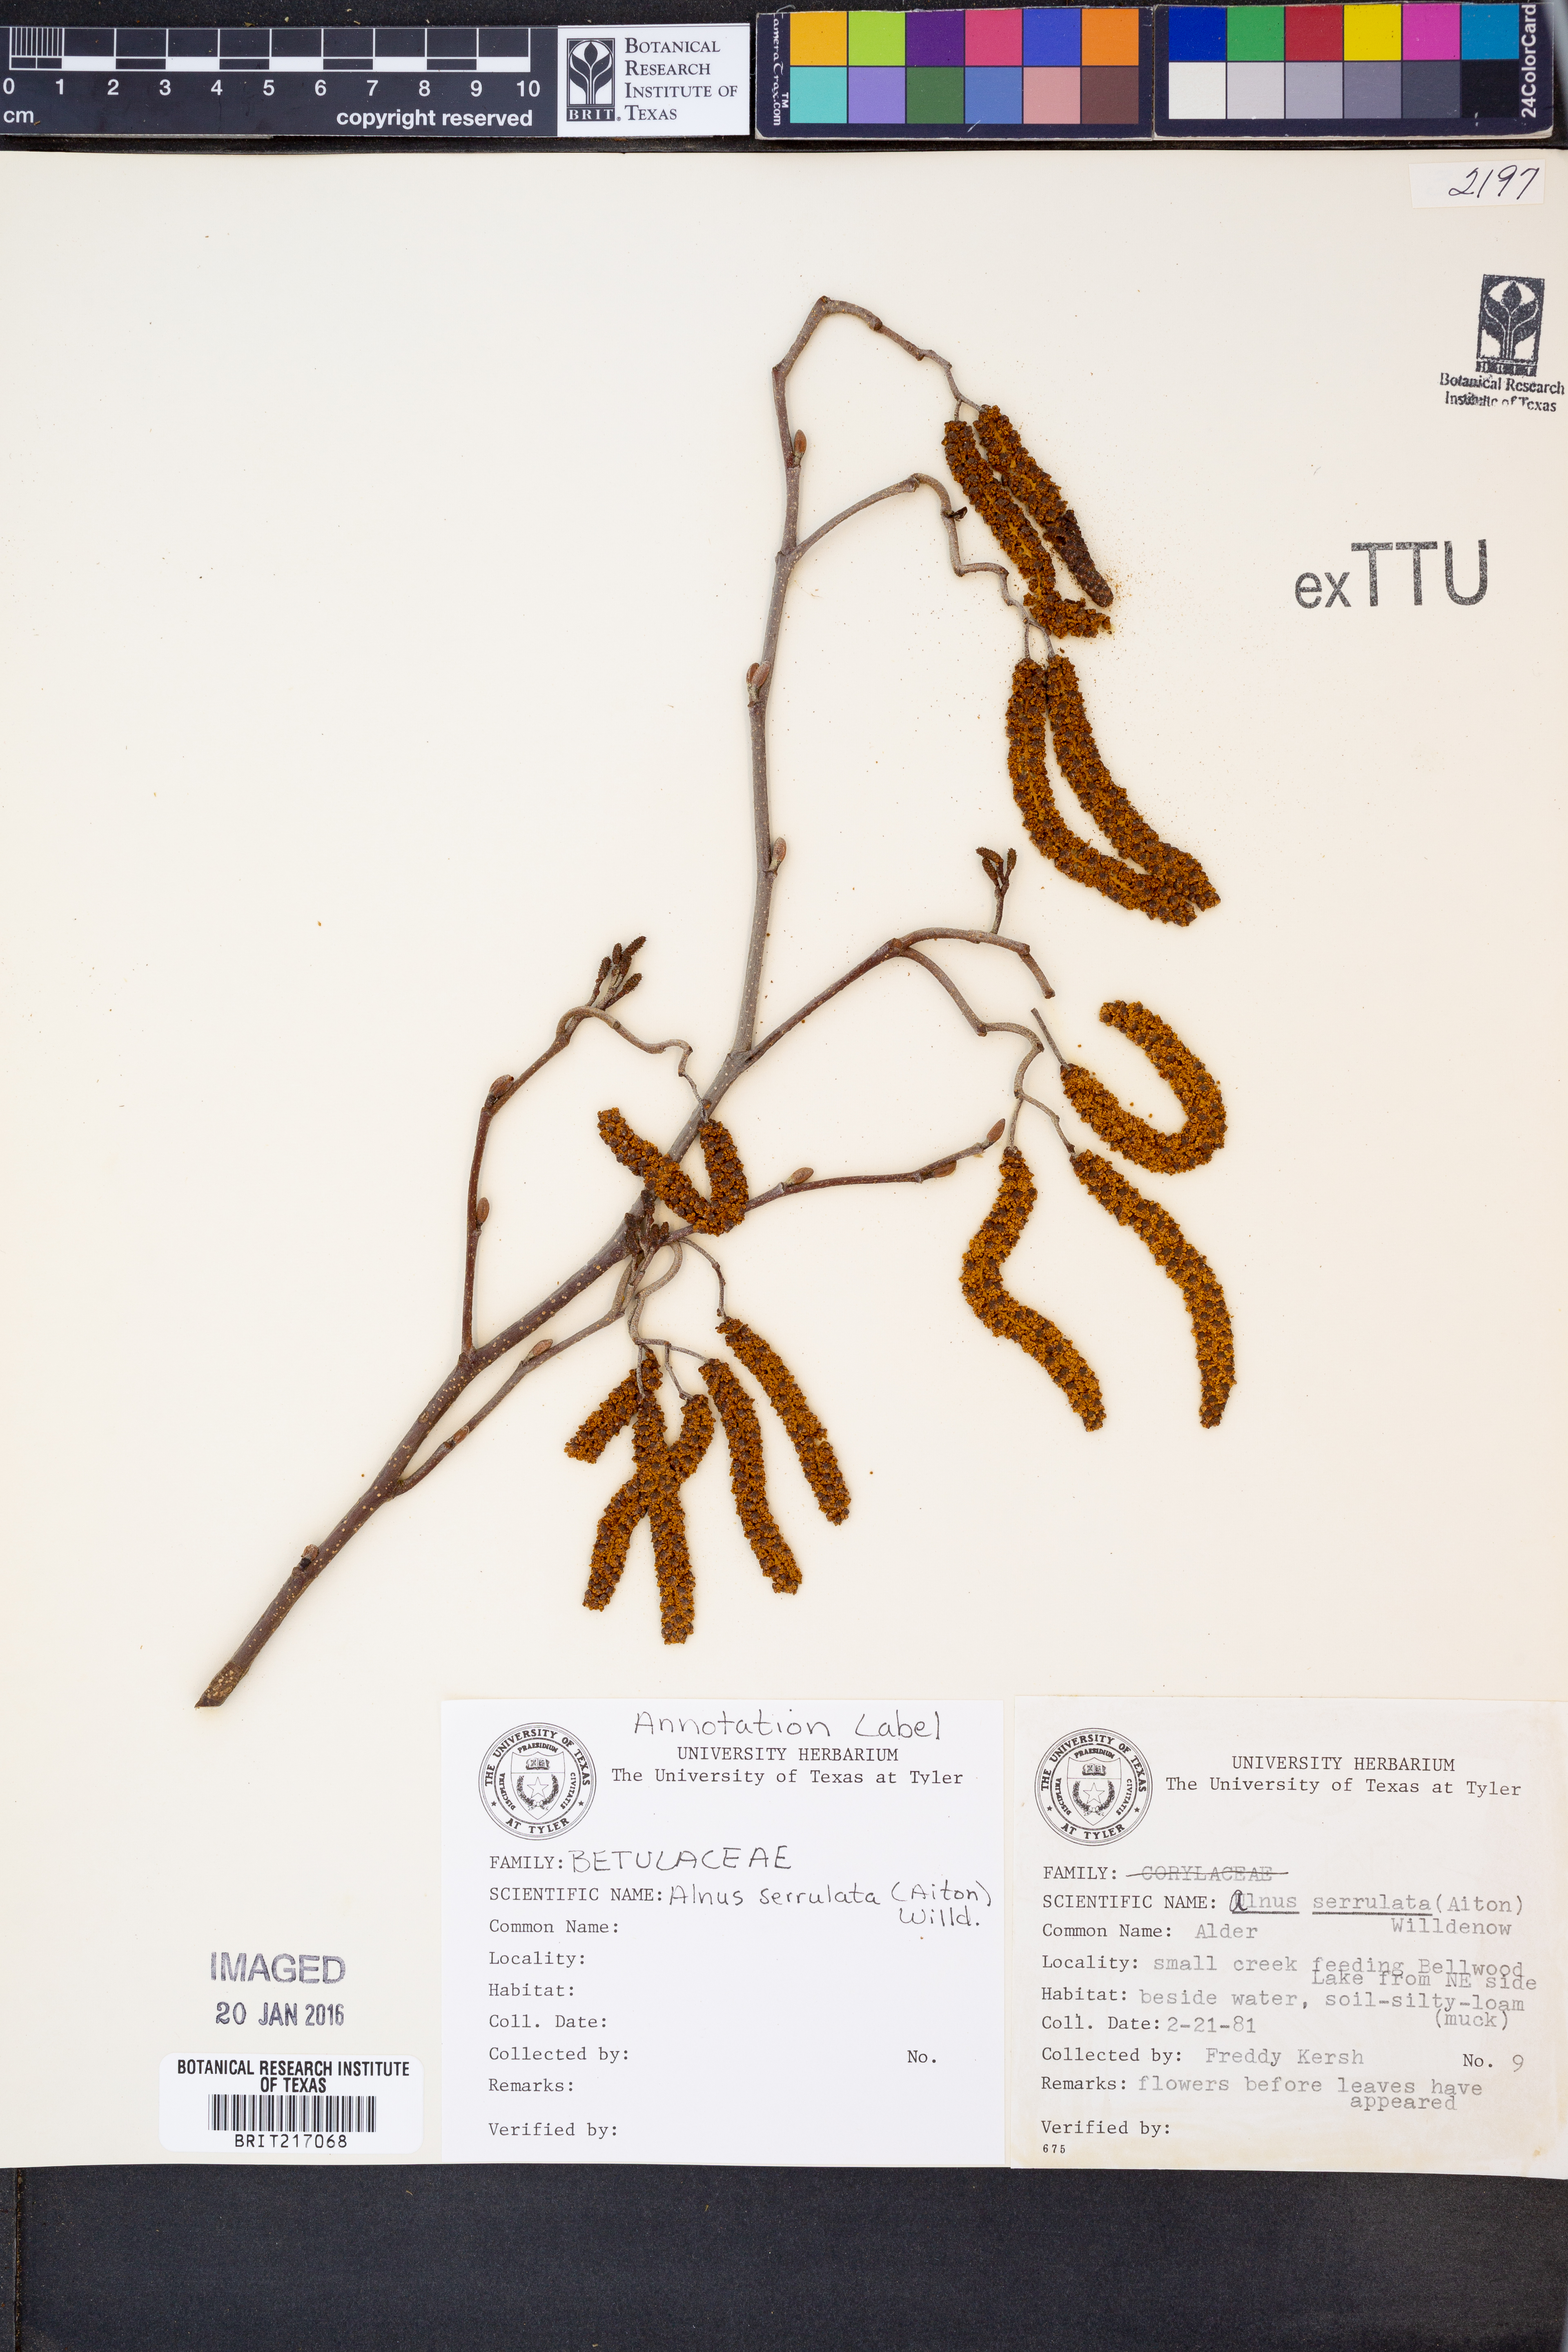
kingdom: Plantae
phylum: Tracheophyta
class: Magnoliopsida
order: Fagales
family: Betulaceae
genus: Alnus
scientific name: Alnus serrulata
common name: Hazel alder
